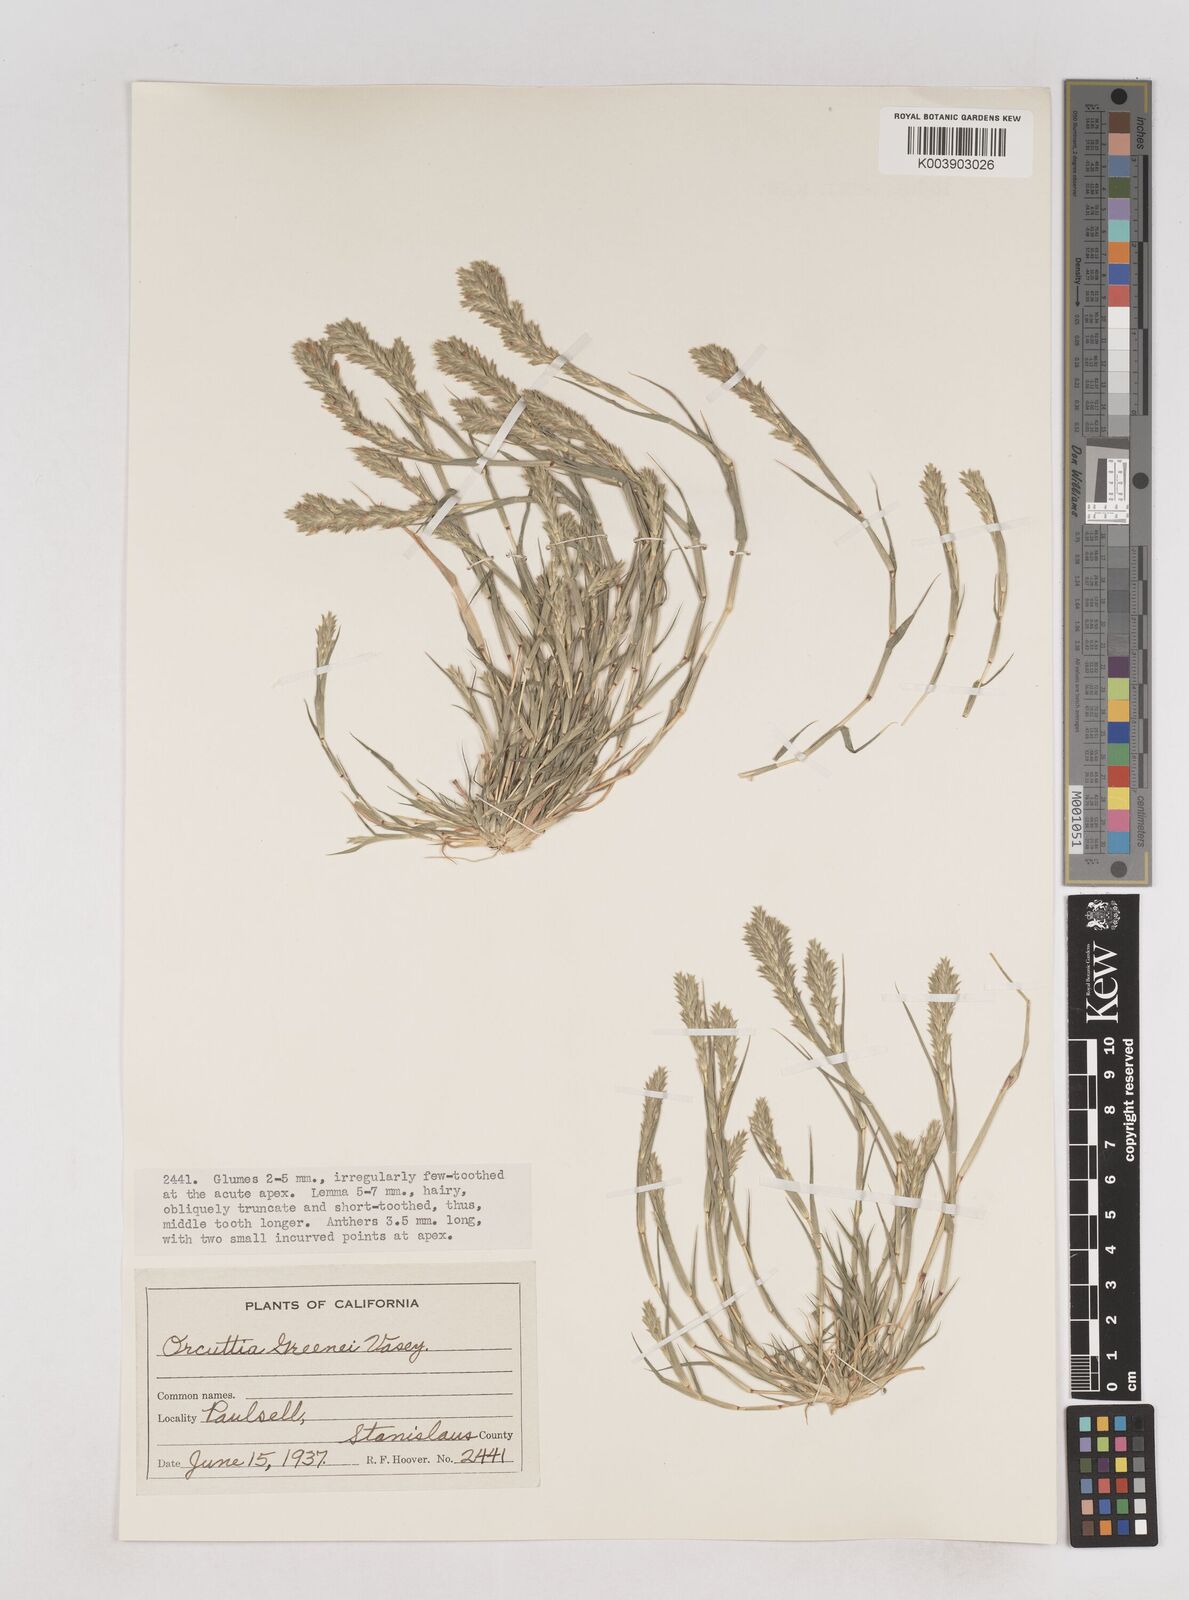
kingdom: Plantae
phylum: Tracheophyta
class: Liliopsida
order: Poales
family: Poaceae
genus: Tuctoria
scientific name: Tuctoria greenei
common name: Awnless spiral grass
